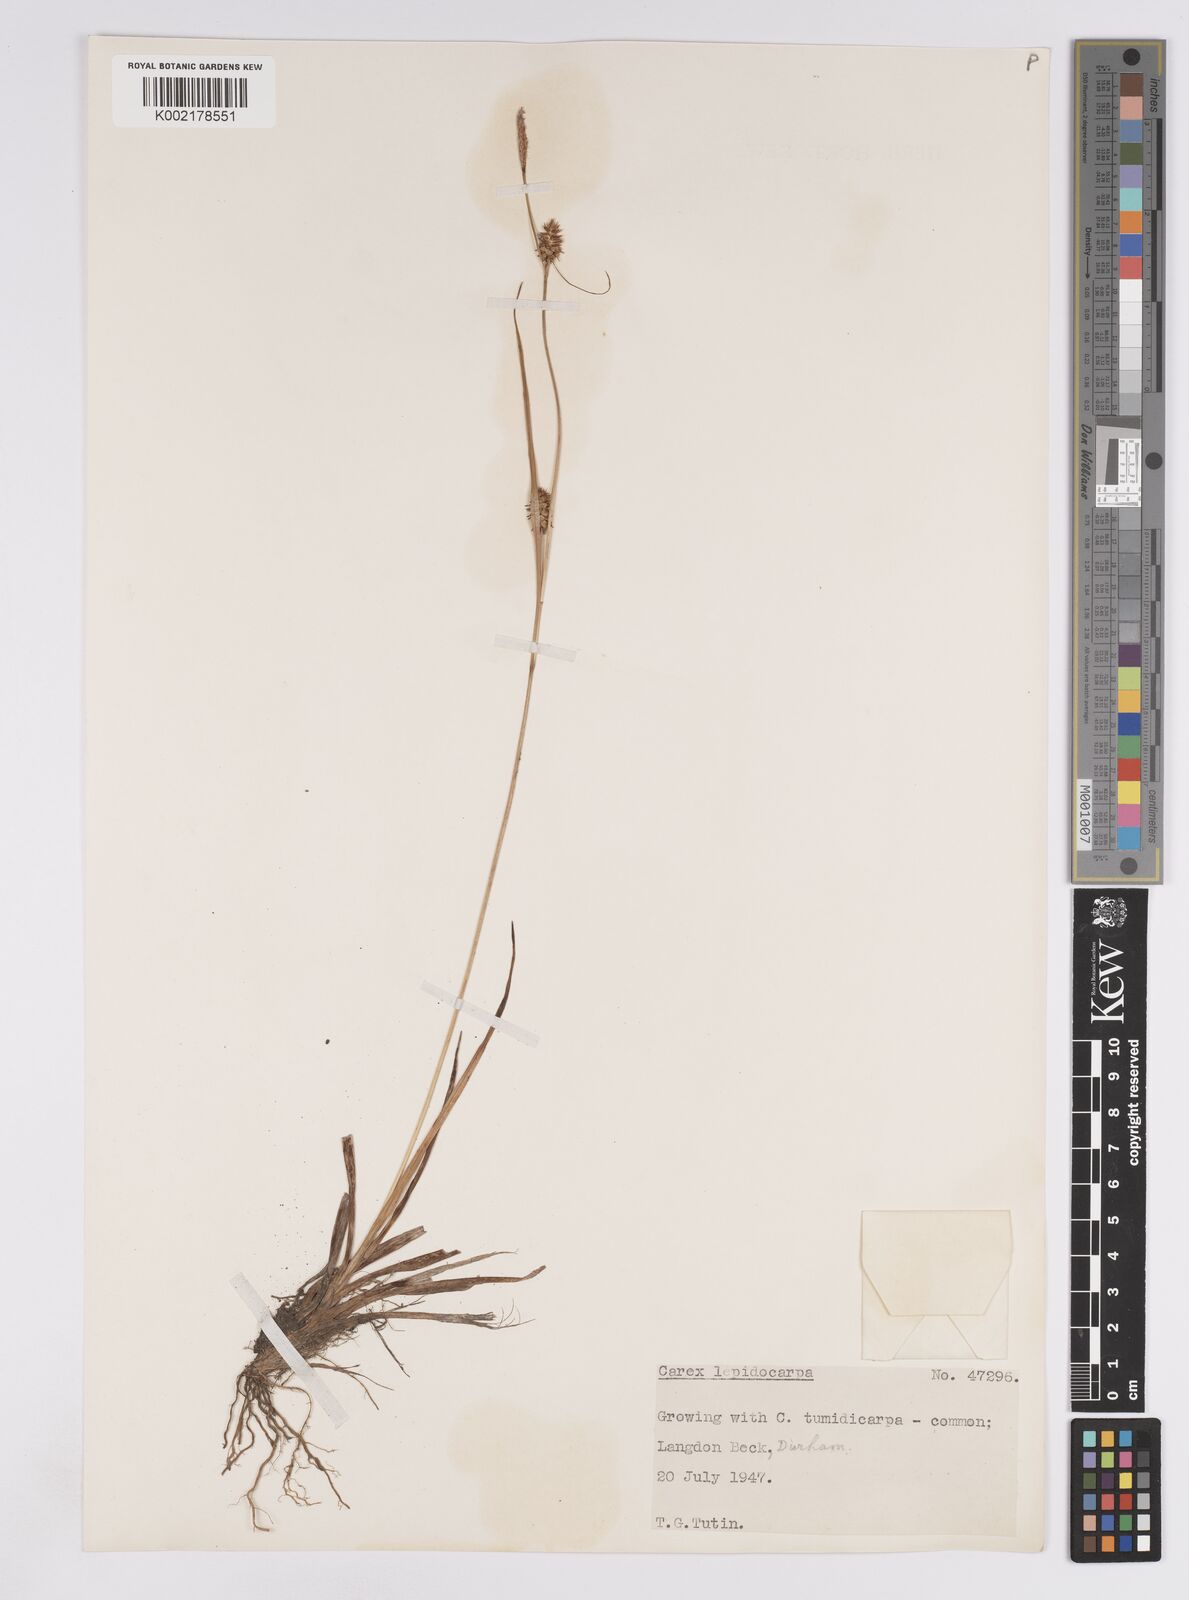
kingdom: Plantae
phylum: Tracheophyta
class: Liliopsida
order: Poales
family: Cyperaceae
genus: Carex
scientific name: Carex lepidocarpa
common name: Long-stalked yellow-sedge
